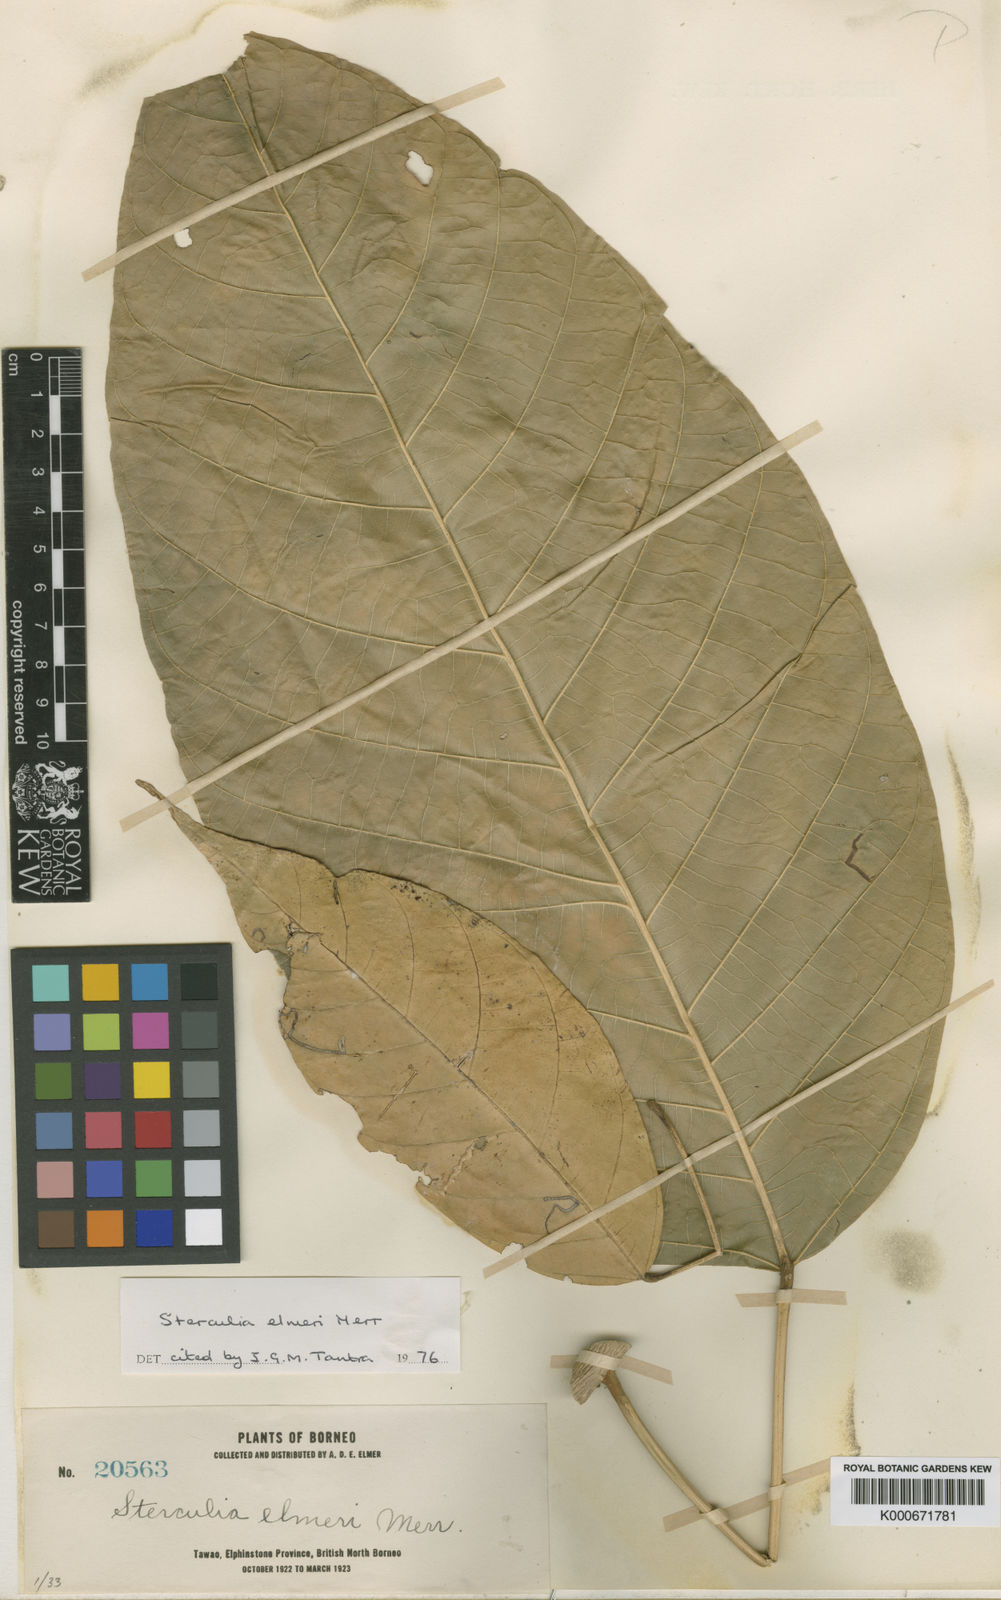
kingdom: Plantae
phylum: Tracheophyta
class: Magnoliopsida
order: Malvales
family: Malvaceae
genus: Sterculia
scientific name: Sterculia elmeri
